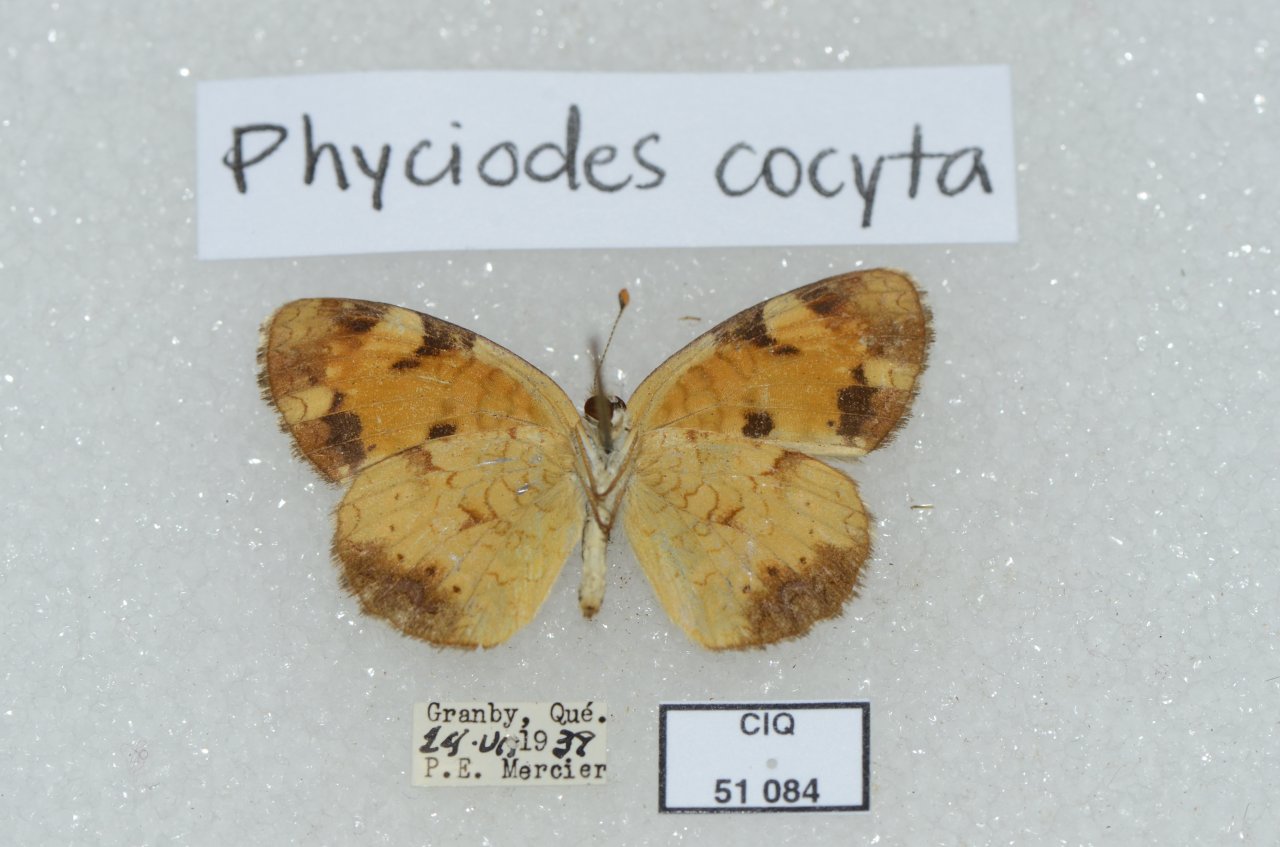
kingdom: Animalia
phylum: Arthropoda
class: Insecta
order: Lepidoptera
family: Nymphalidae
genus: Phyciodes
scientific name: Phyciodes tharos
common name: Northern Crescent
